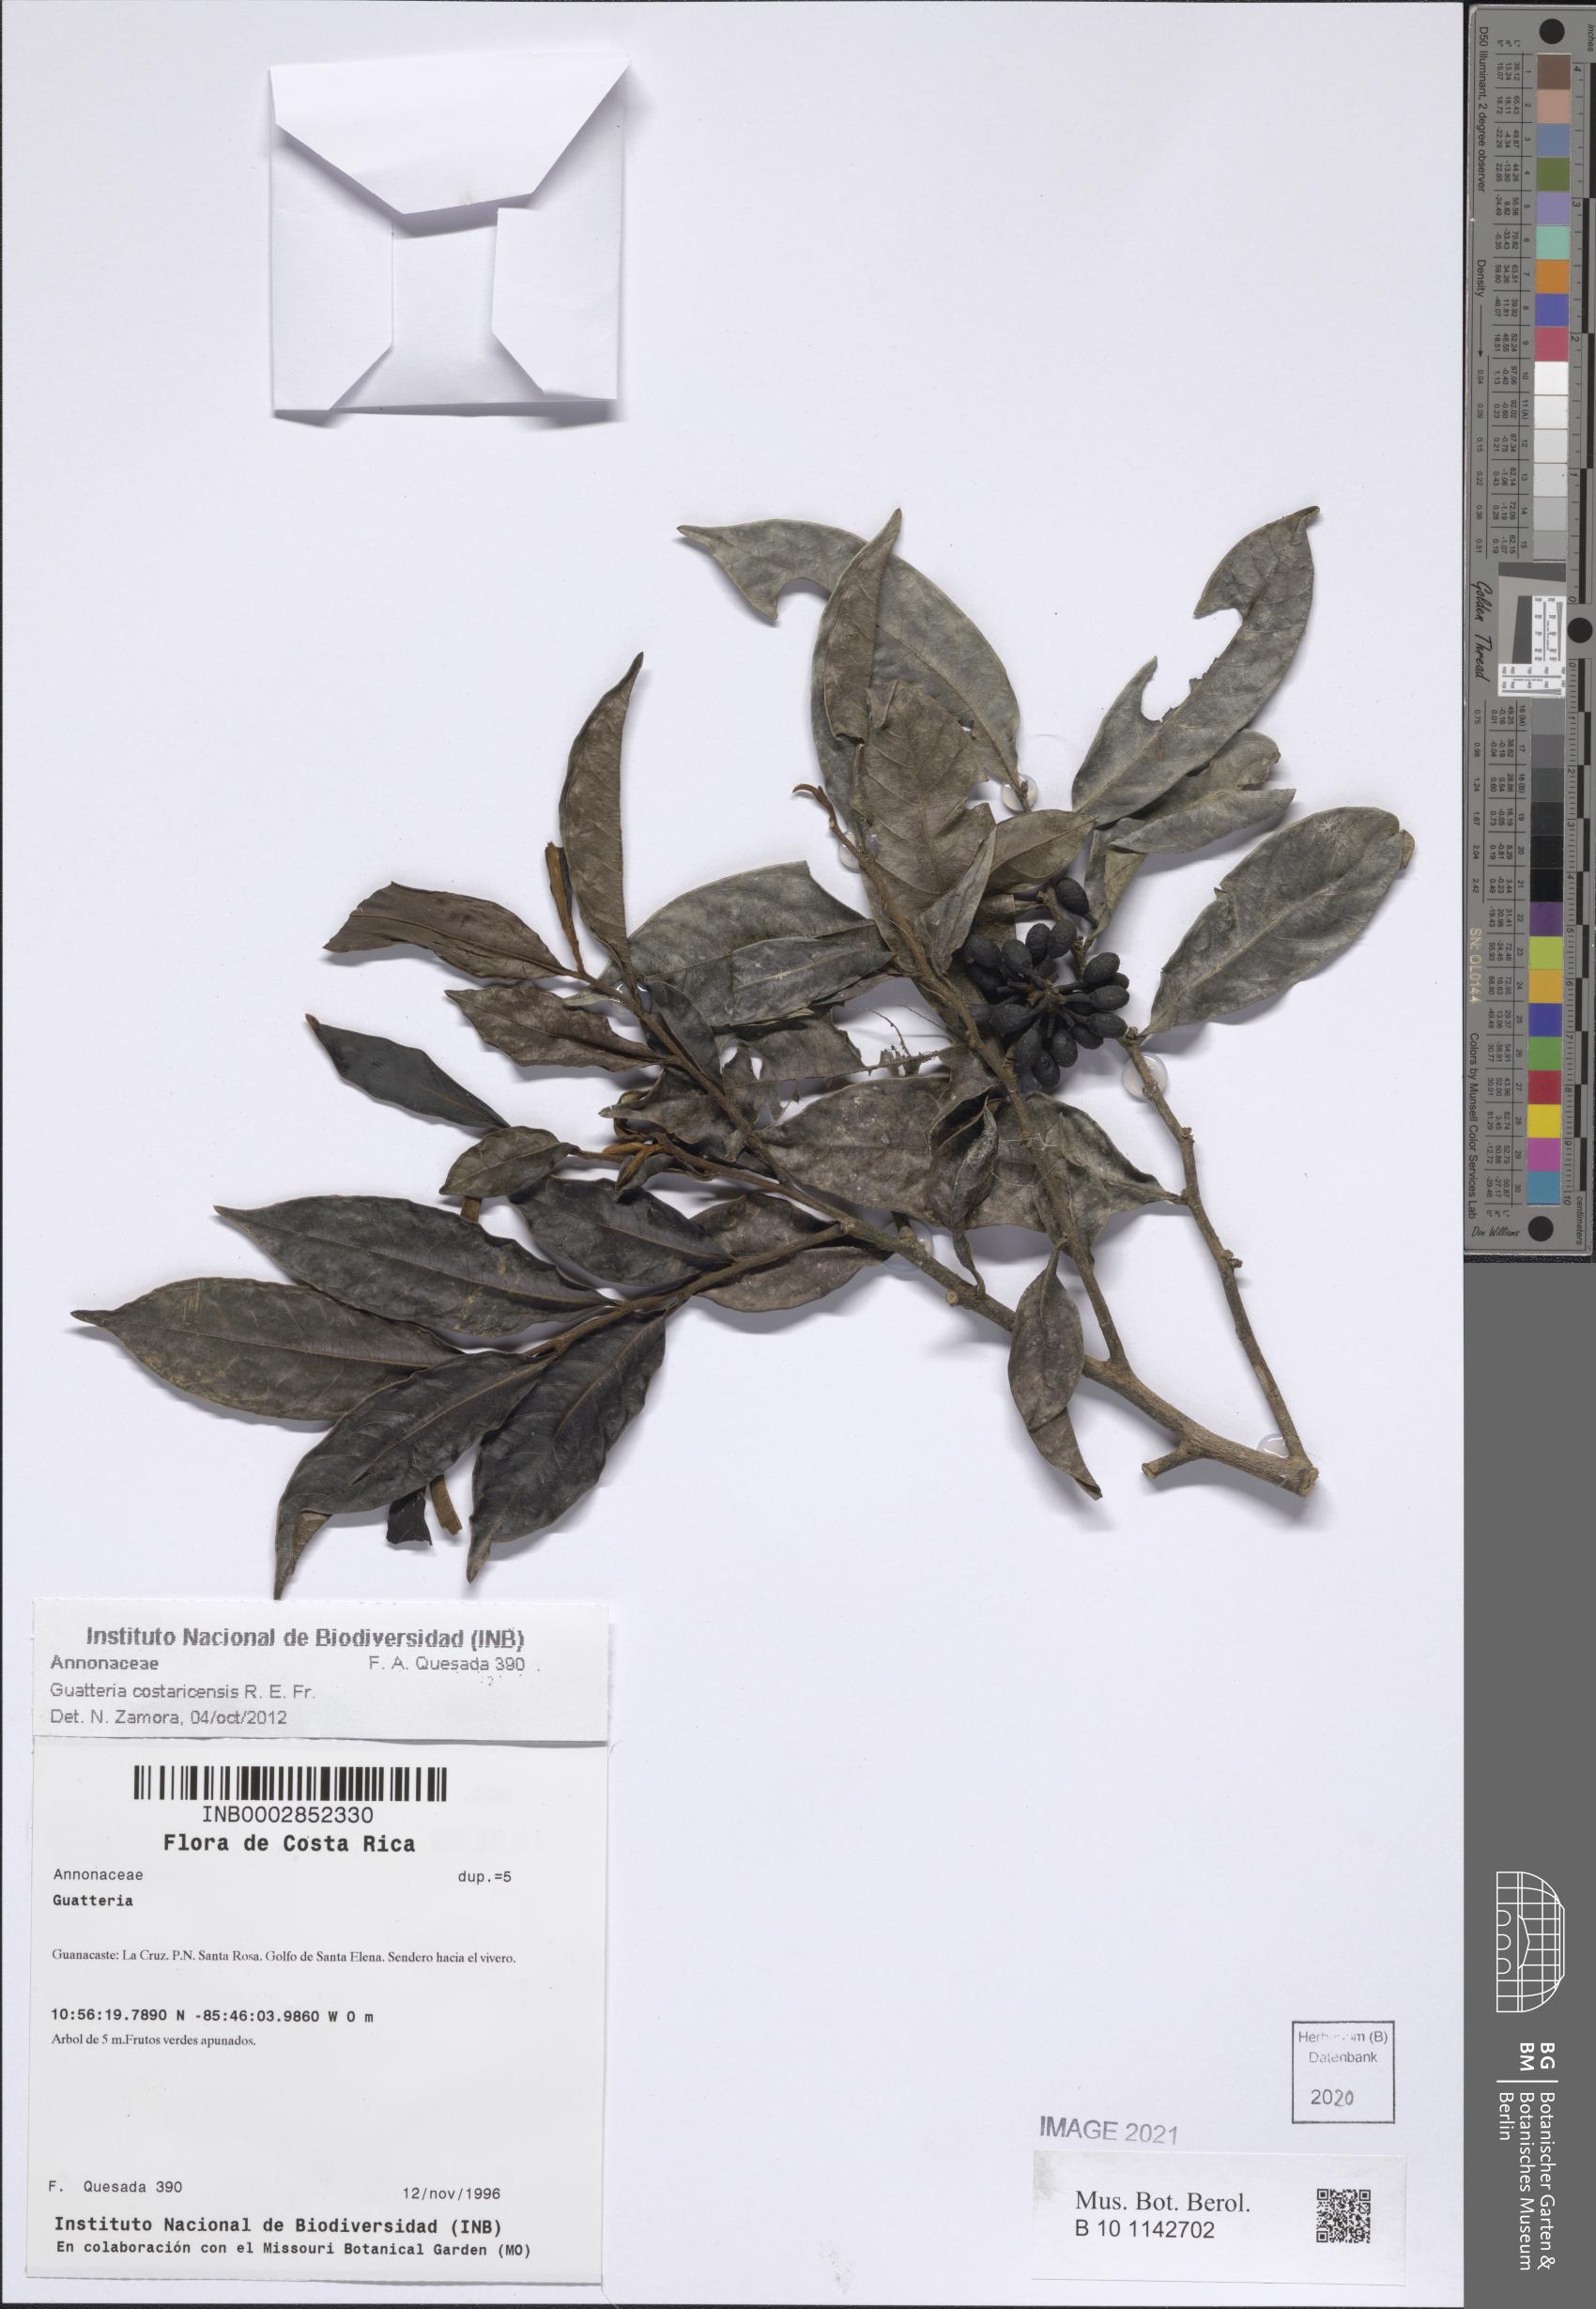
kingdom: Plantae
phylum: Tracheophyta
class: Magnoliopsida
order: Magnoliales
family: Annonaceae
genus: Guatteria
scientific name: Guatteria costaricensis
